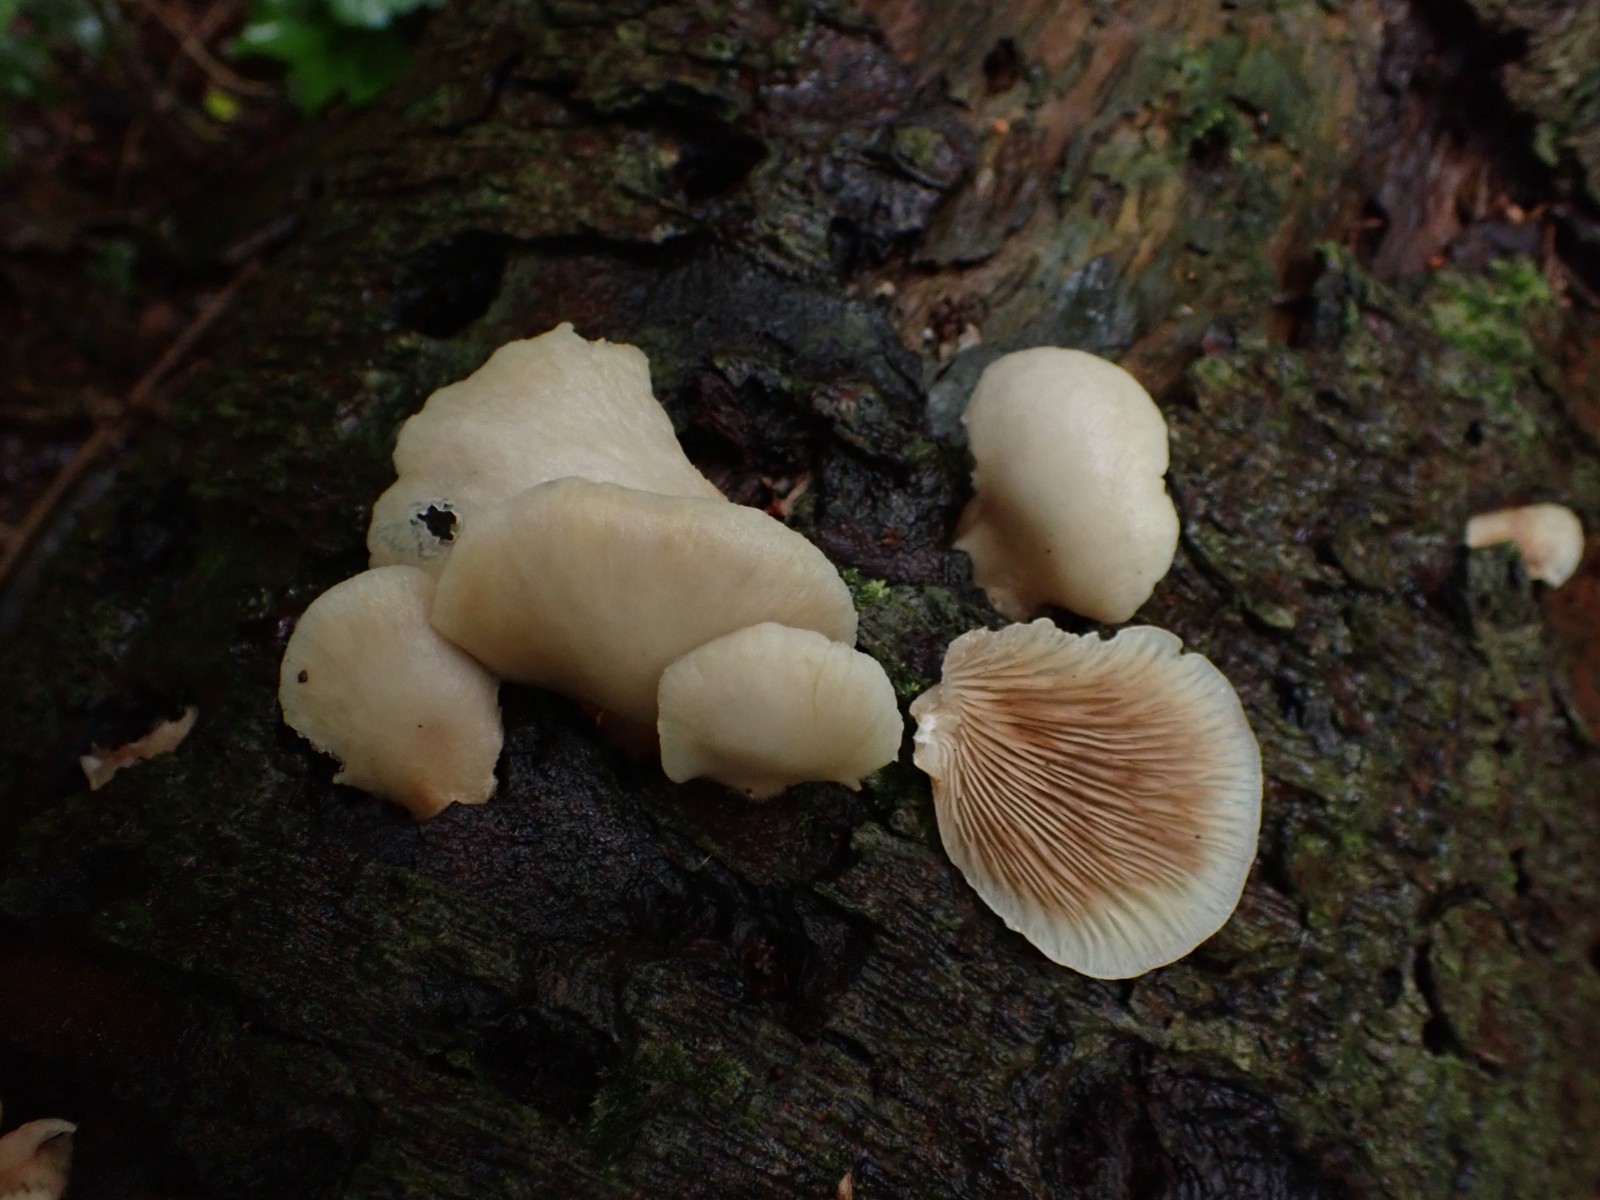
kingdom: Fungi
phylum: Basidiomycota
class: Agaricomycetes
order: Agaricales
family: Crepidotaceae
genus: Crepidotus
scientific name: Crepidotus
